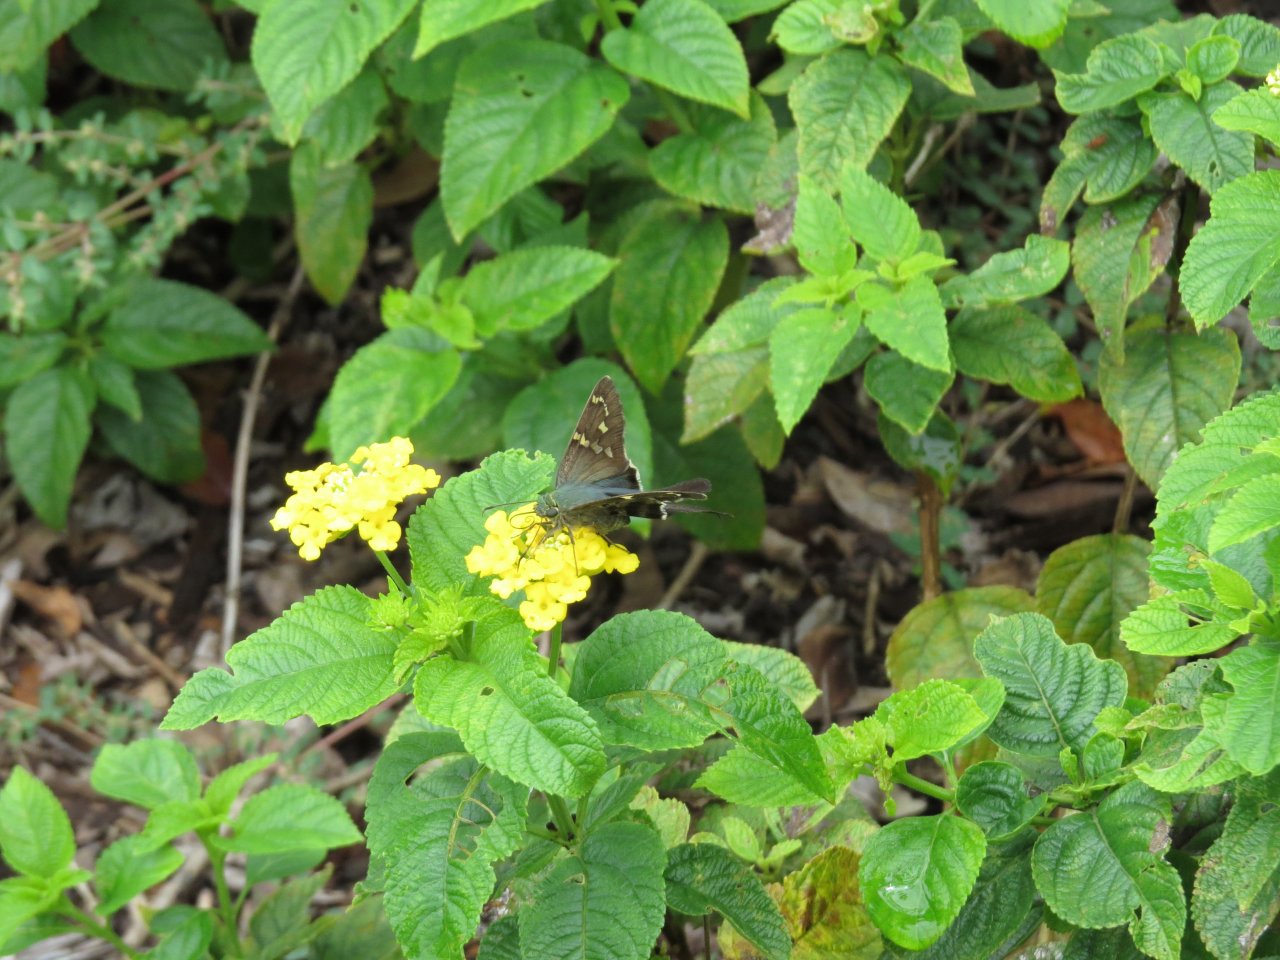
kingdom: Animalia
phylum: Arthropoda
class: Insecta
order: Lepidoptera
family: Hesperiidae
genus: Urbanus
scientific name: Urbanus proteus
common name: Long-tailed Skipper
